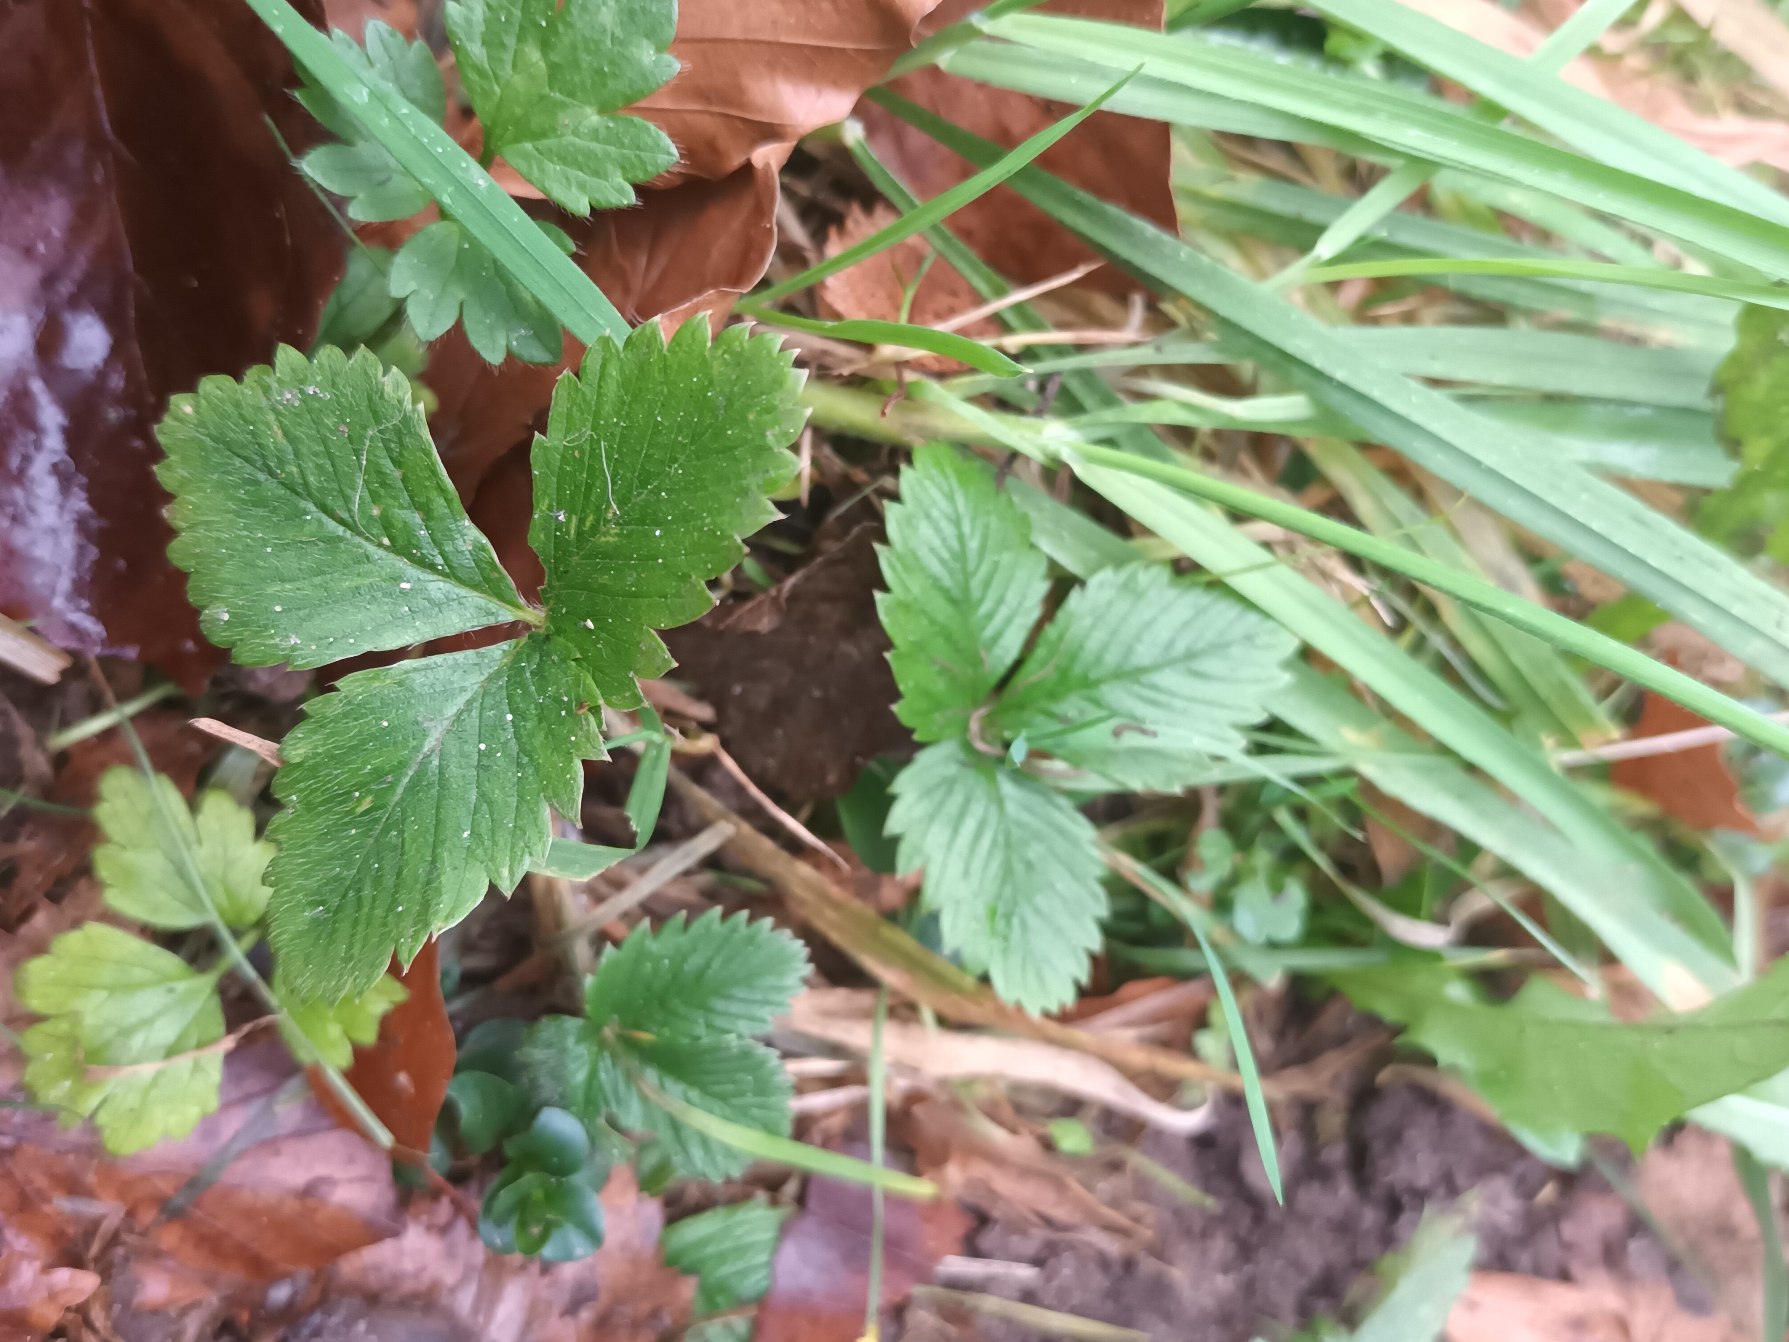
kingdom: Plantae
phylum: Tracheophyta
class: Magnoliopsida
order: Rosales
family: Rosaceae
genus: Fragaria
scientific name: Fragaria vesca
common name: Skov-jordbær
